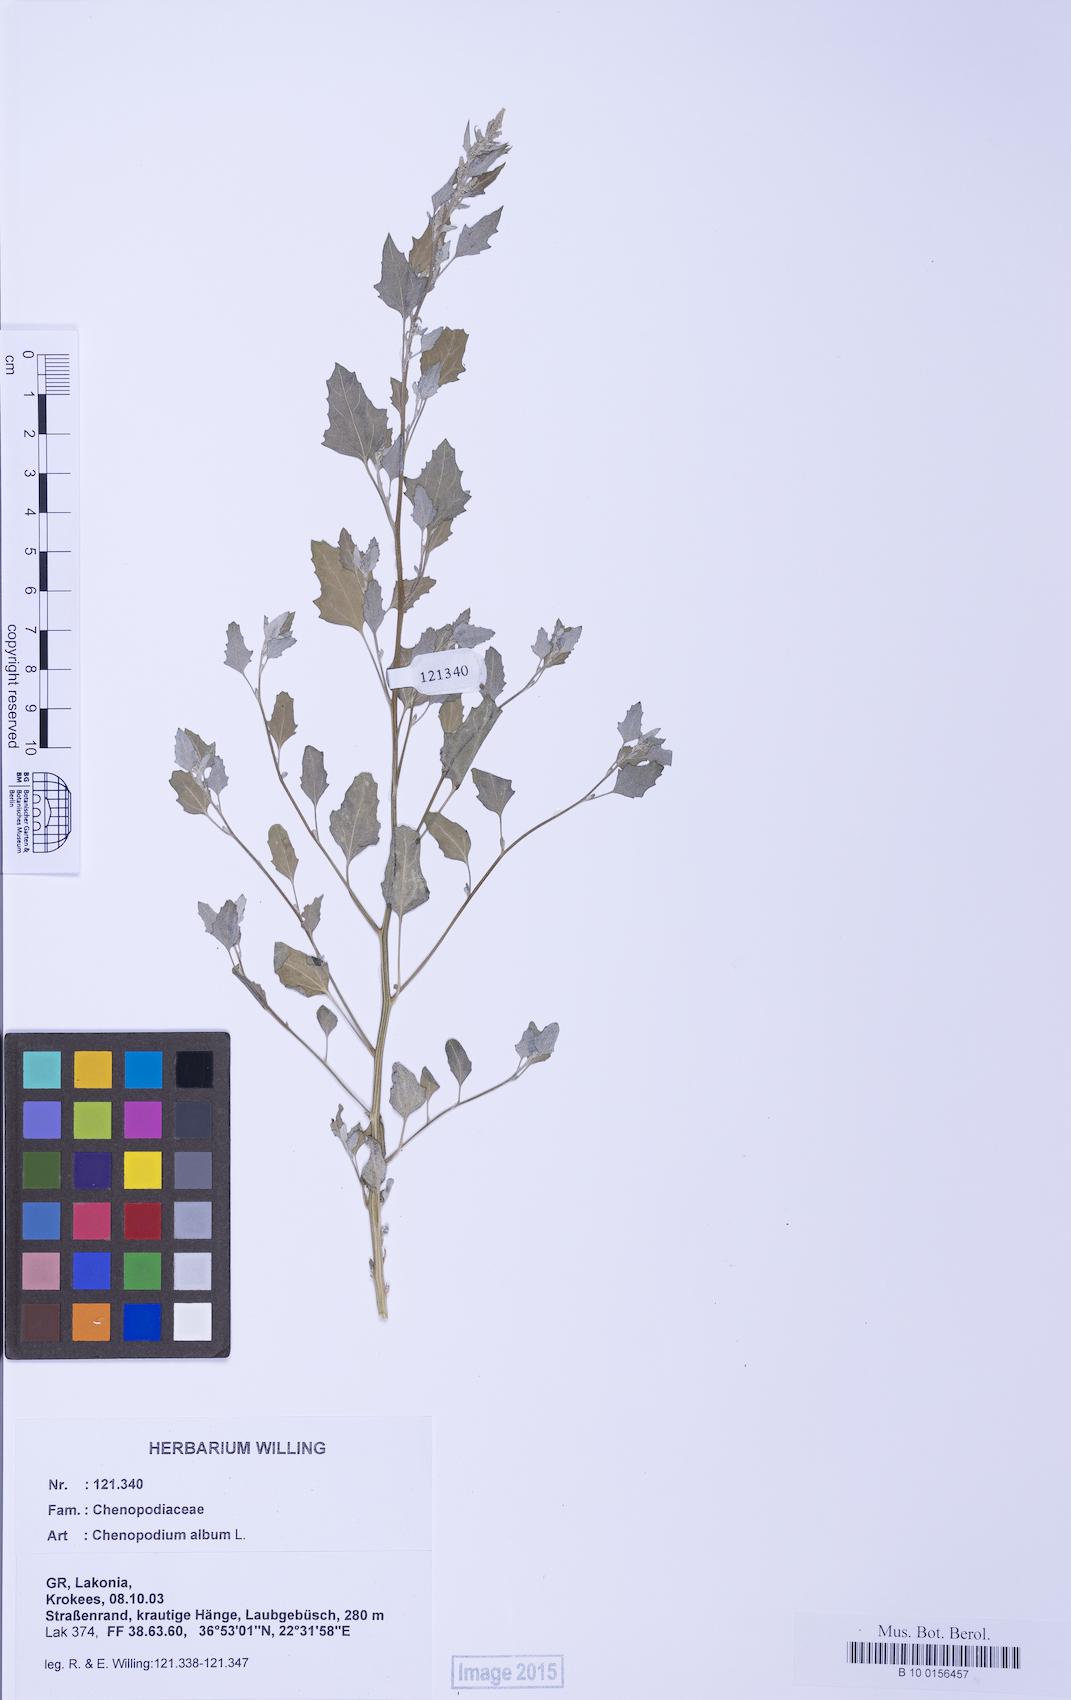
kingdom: Plantae
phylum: Tracheophyta
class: Magnoliopsida
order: Caryophyllales
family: Amaranthaceae
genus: Chenopodium
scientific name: Chenopodium album
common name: Fat-hen
